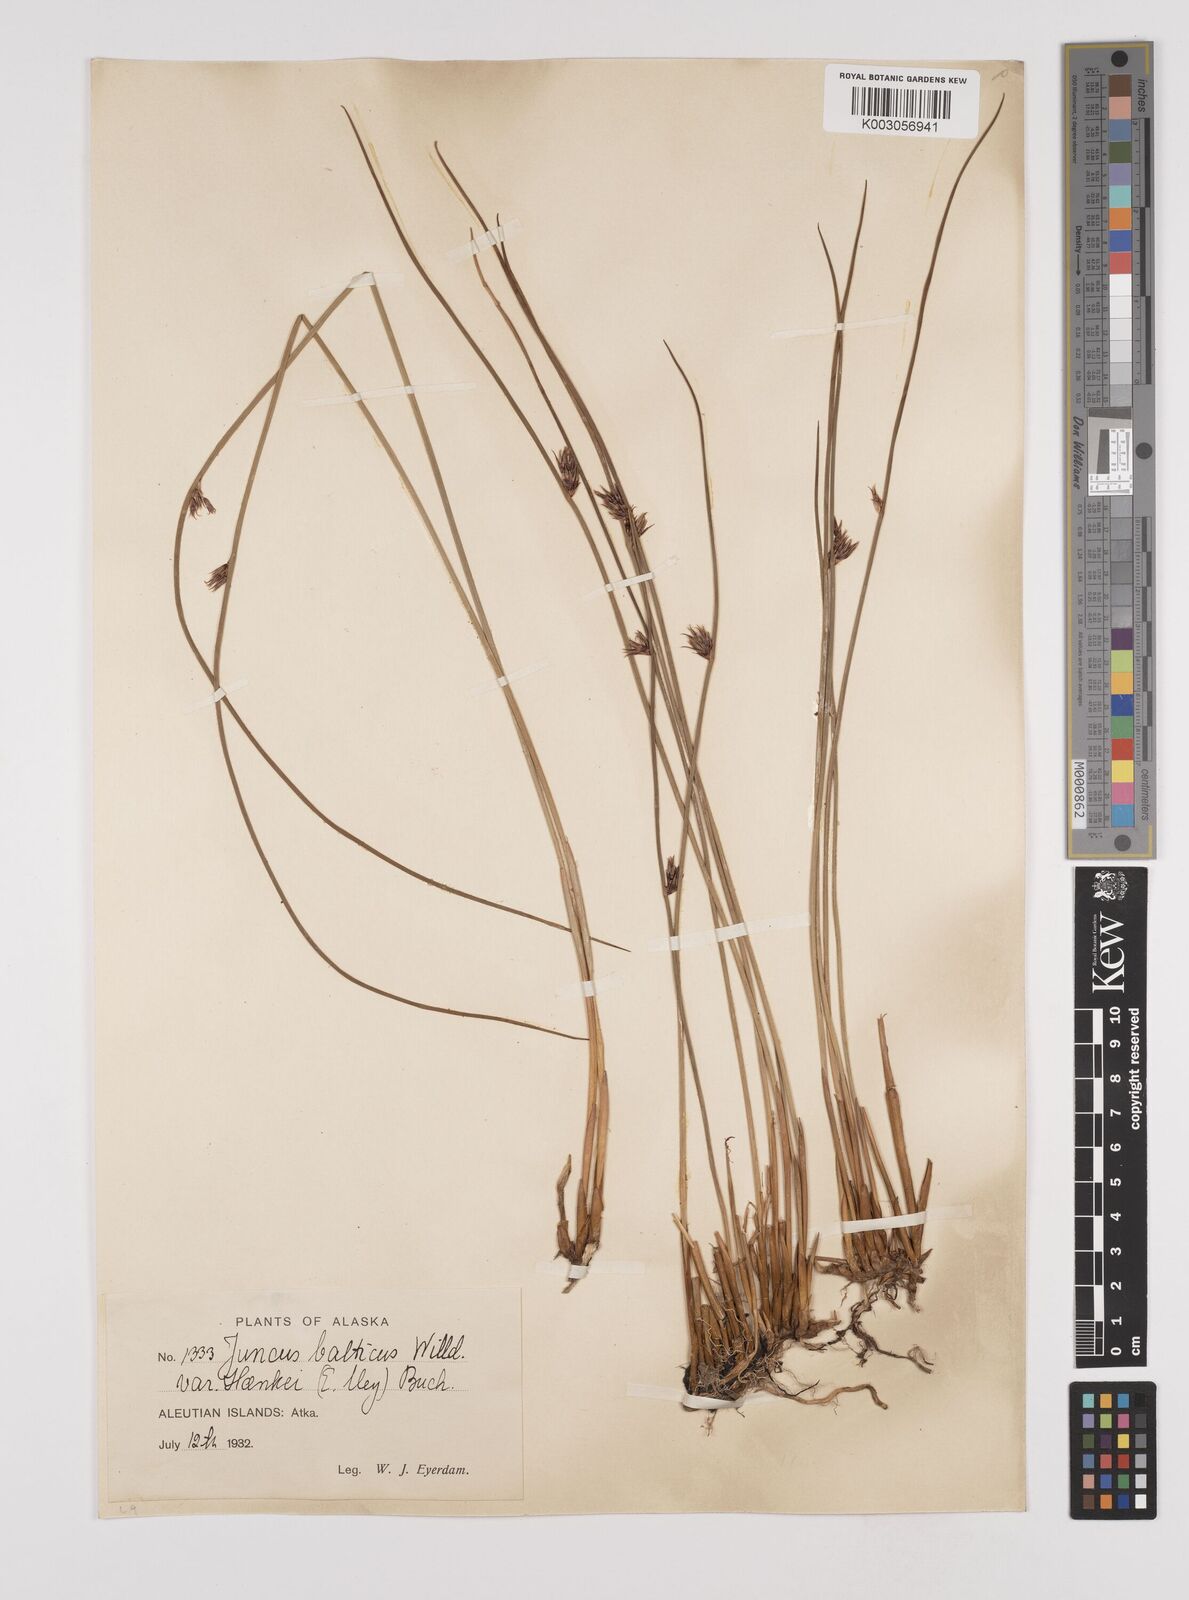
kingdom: Plantae
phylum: Tracheophyta
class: Liliopsida
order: Poales
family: Juncaceae
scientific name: Juncaceae
